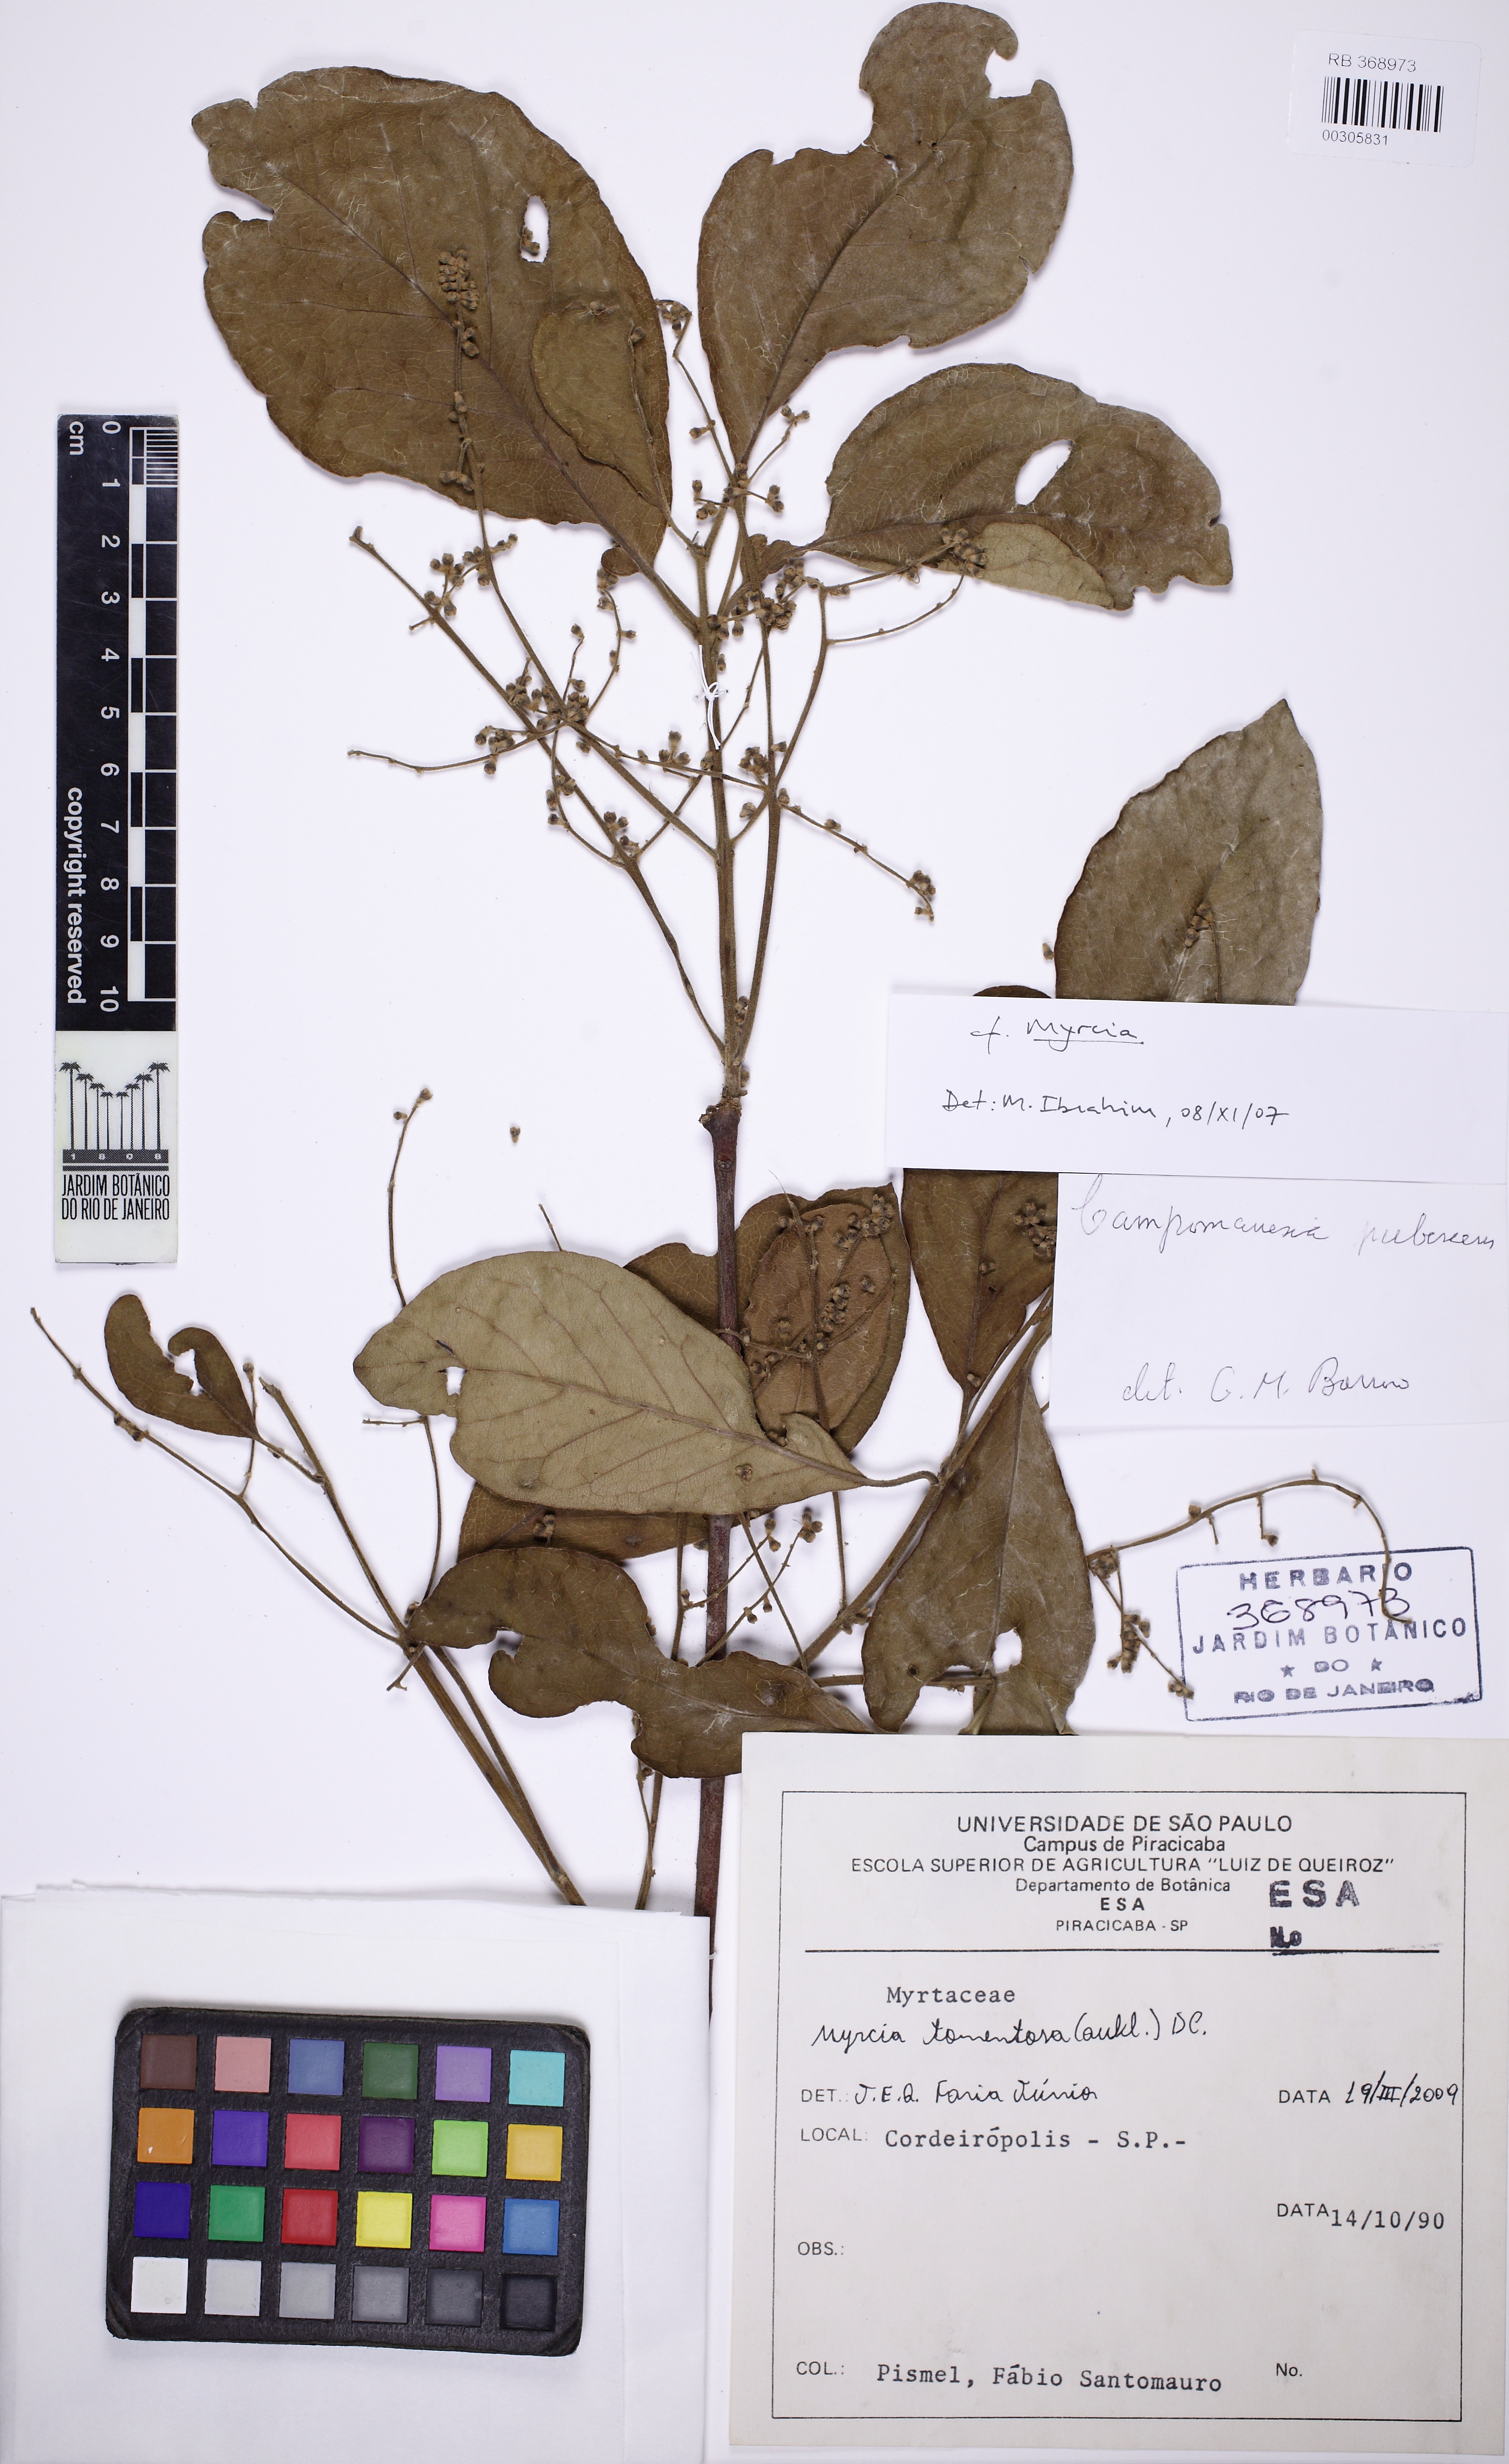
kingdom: Plantae
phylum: Tracheophyta
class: Magnoliopsida
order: Myrtales
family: Myrtaceae
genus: Myrcia
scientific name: Myrcia tomentosa
